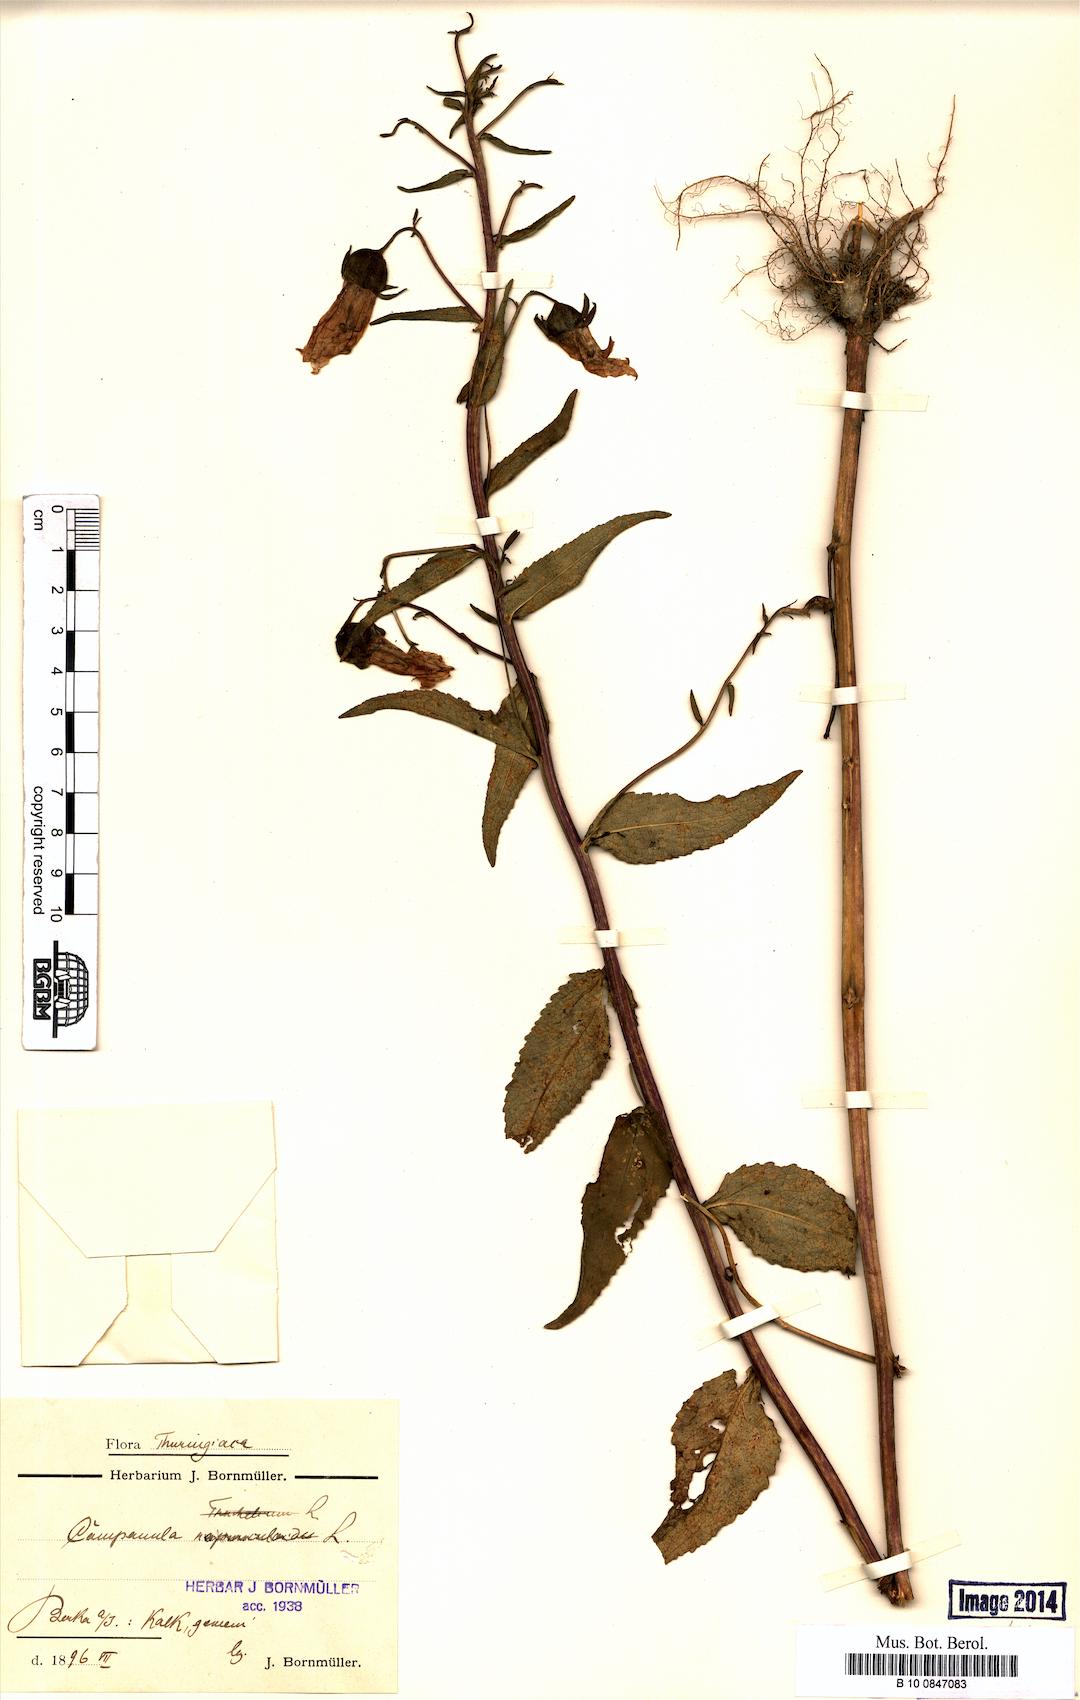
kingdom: Plantae
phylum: Tracheophyta
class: Magnoliopsida
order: Asterales
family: Campanulaceae
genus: Campanula
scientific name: Campanula rapunculoides
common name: Creeping bellflower
